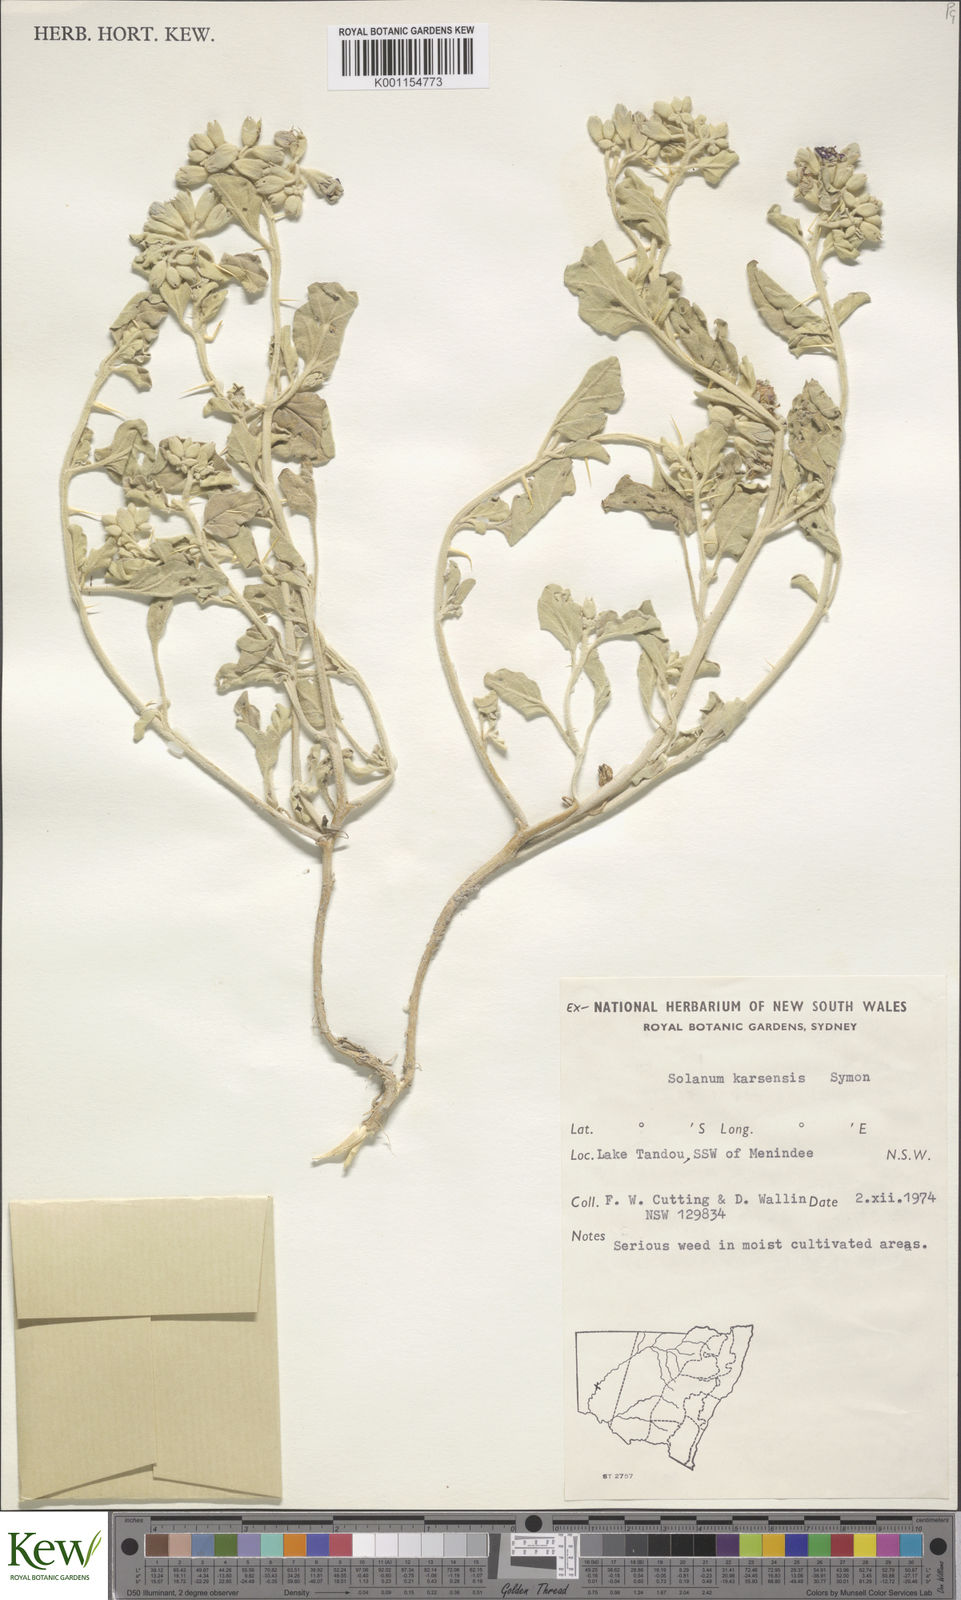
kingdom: Plantae
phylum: Tracheophyta
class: Magnoliopsida
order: Solanales
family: Solanaceae
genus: Solanum
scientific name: Solanum karsense
